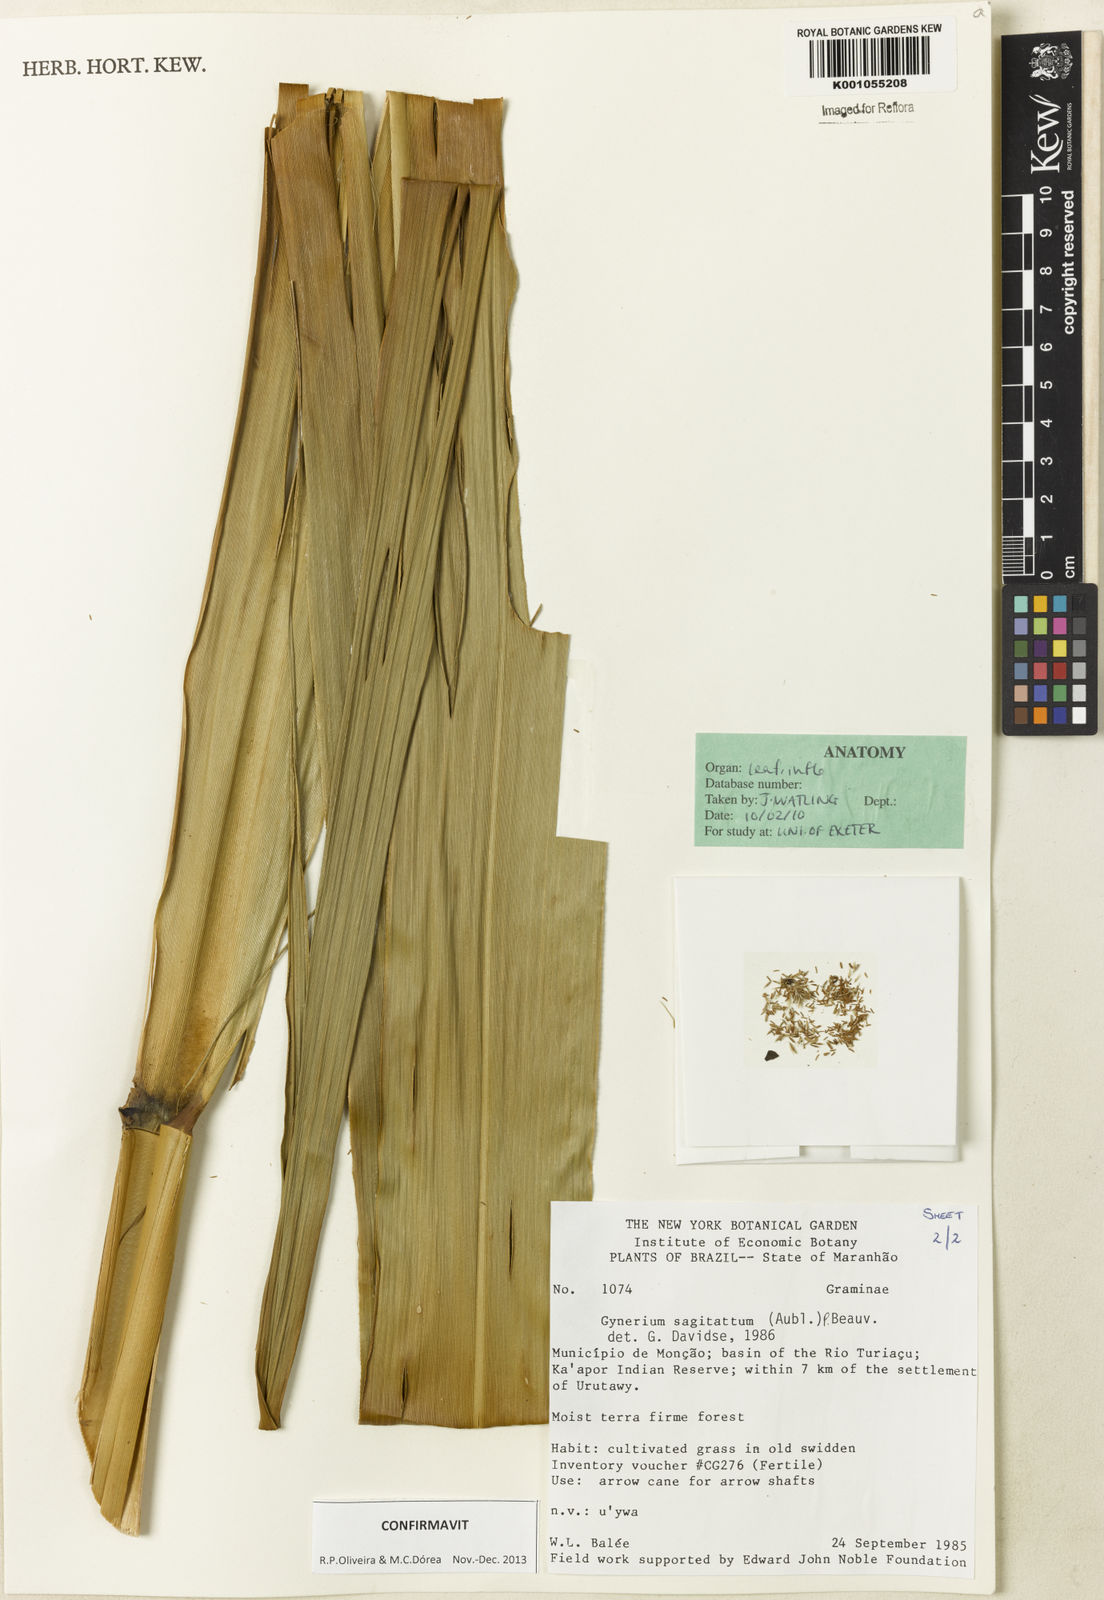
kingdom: Plantae
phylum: Tracheophyta
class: Liliopsida
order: Poales
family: Poaceae
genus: Gynerium
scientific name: Gynerium sagittatum
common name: Wild cane
